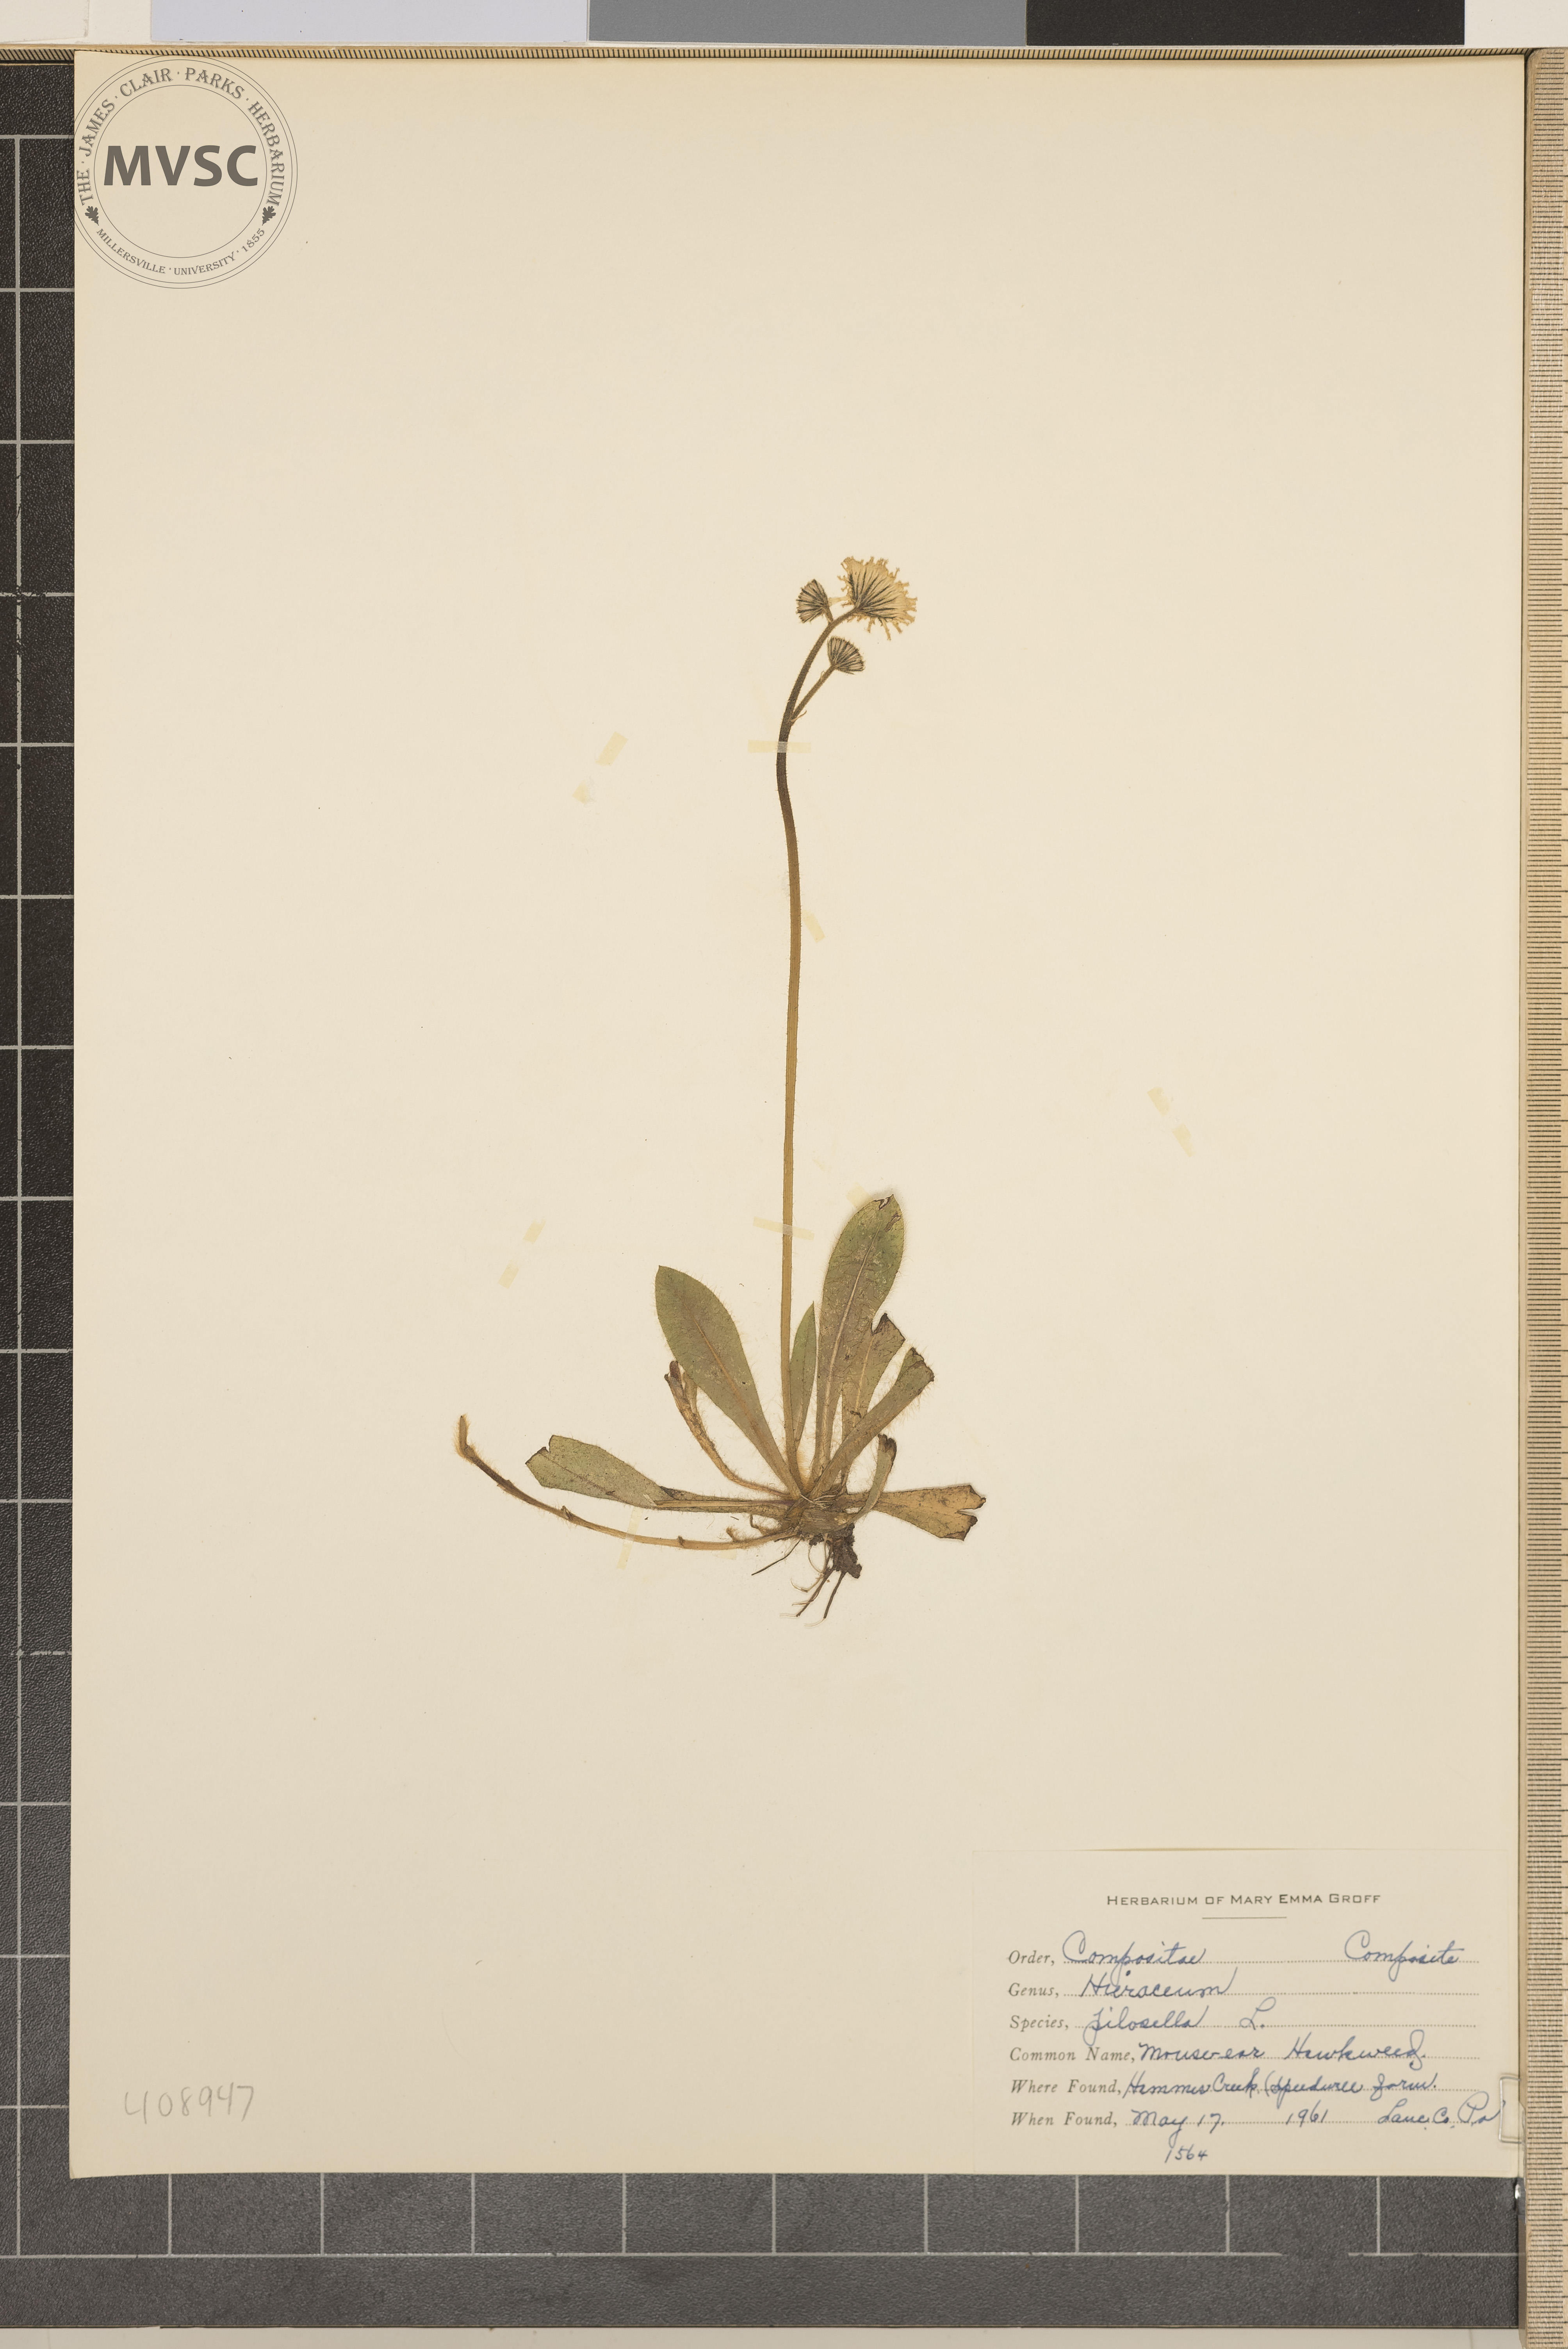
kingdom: Plantae
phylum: Tracheophyta
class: Magnoliopsida
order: Asterales
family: Asteraceae
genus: Pilosella
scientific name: Pilosella
